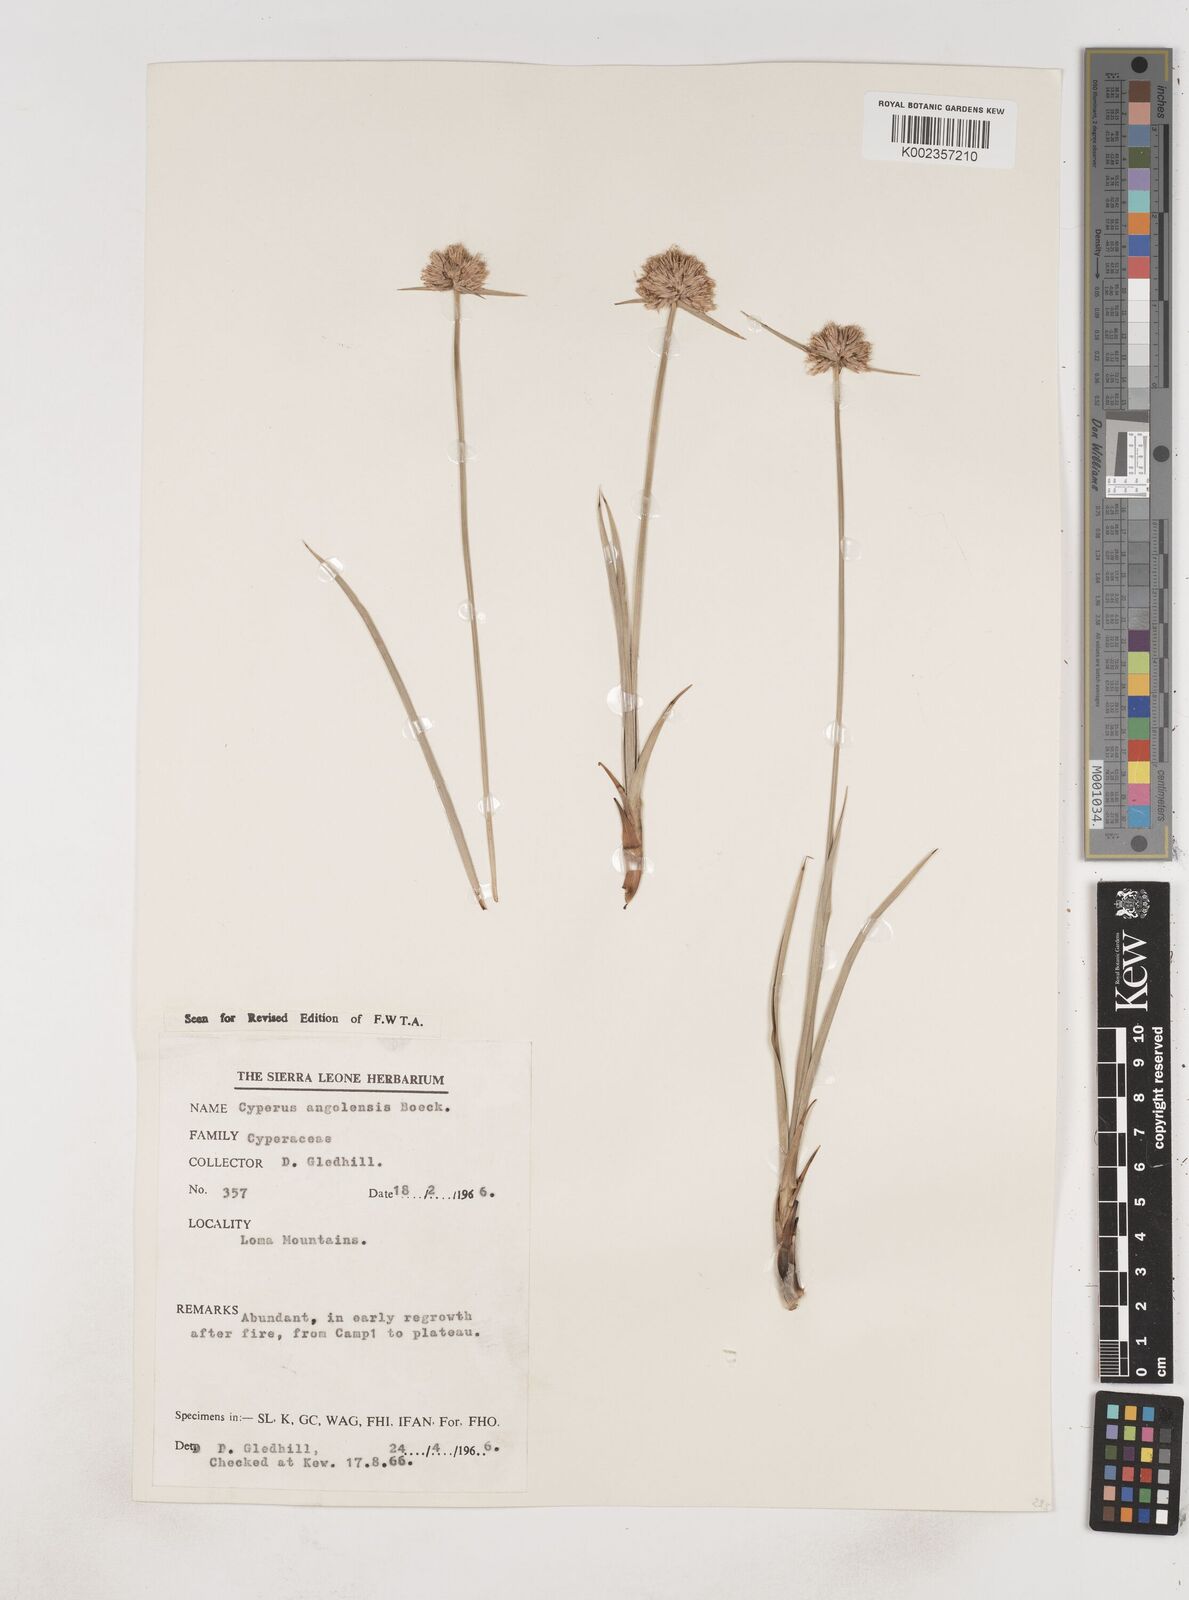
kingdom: Plantae
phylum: Tracheophyta
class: Liliopsida
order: Poales
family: Cyperaceae
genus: Cyperus
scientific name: Cyperus angolensis
